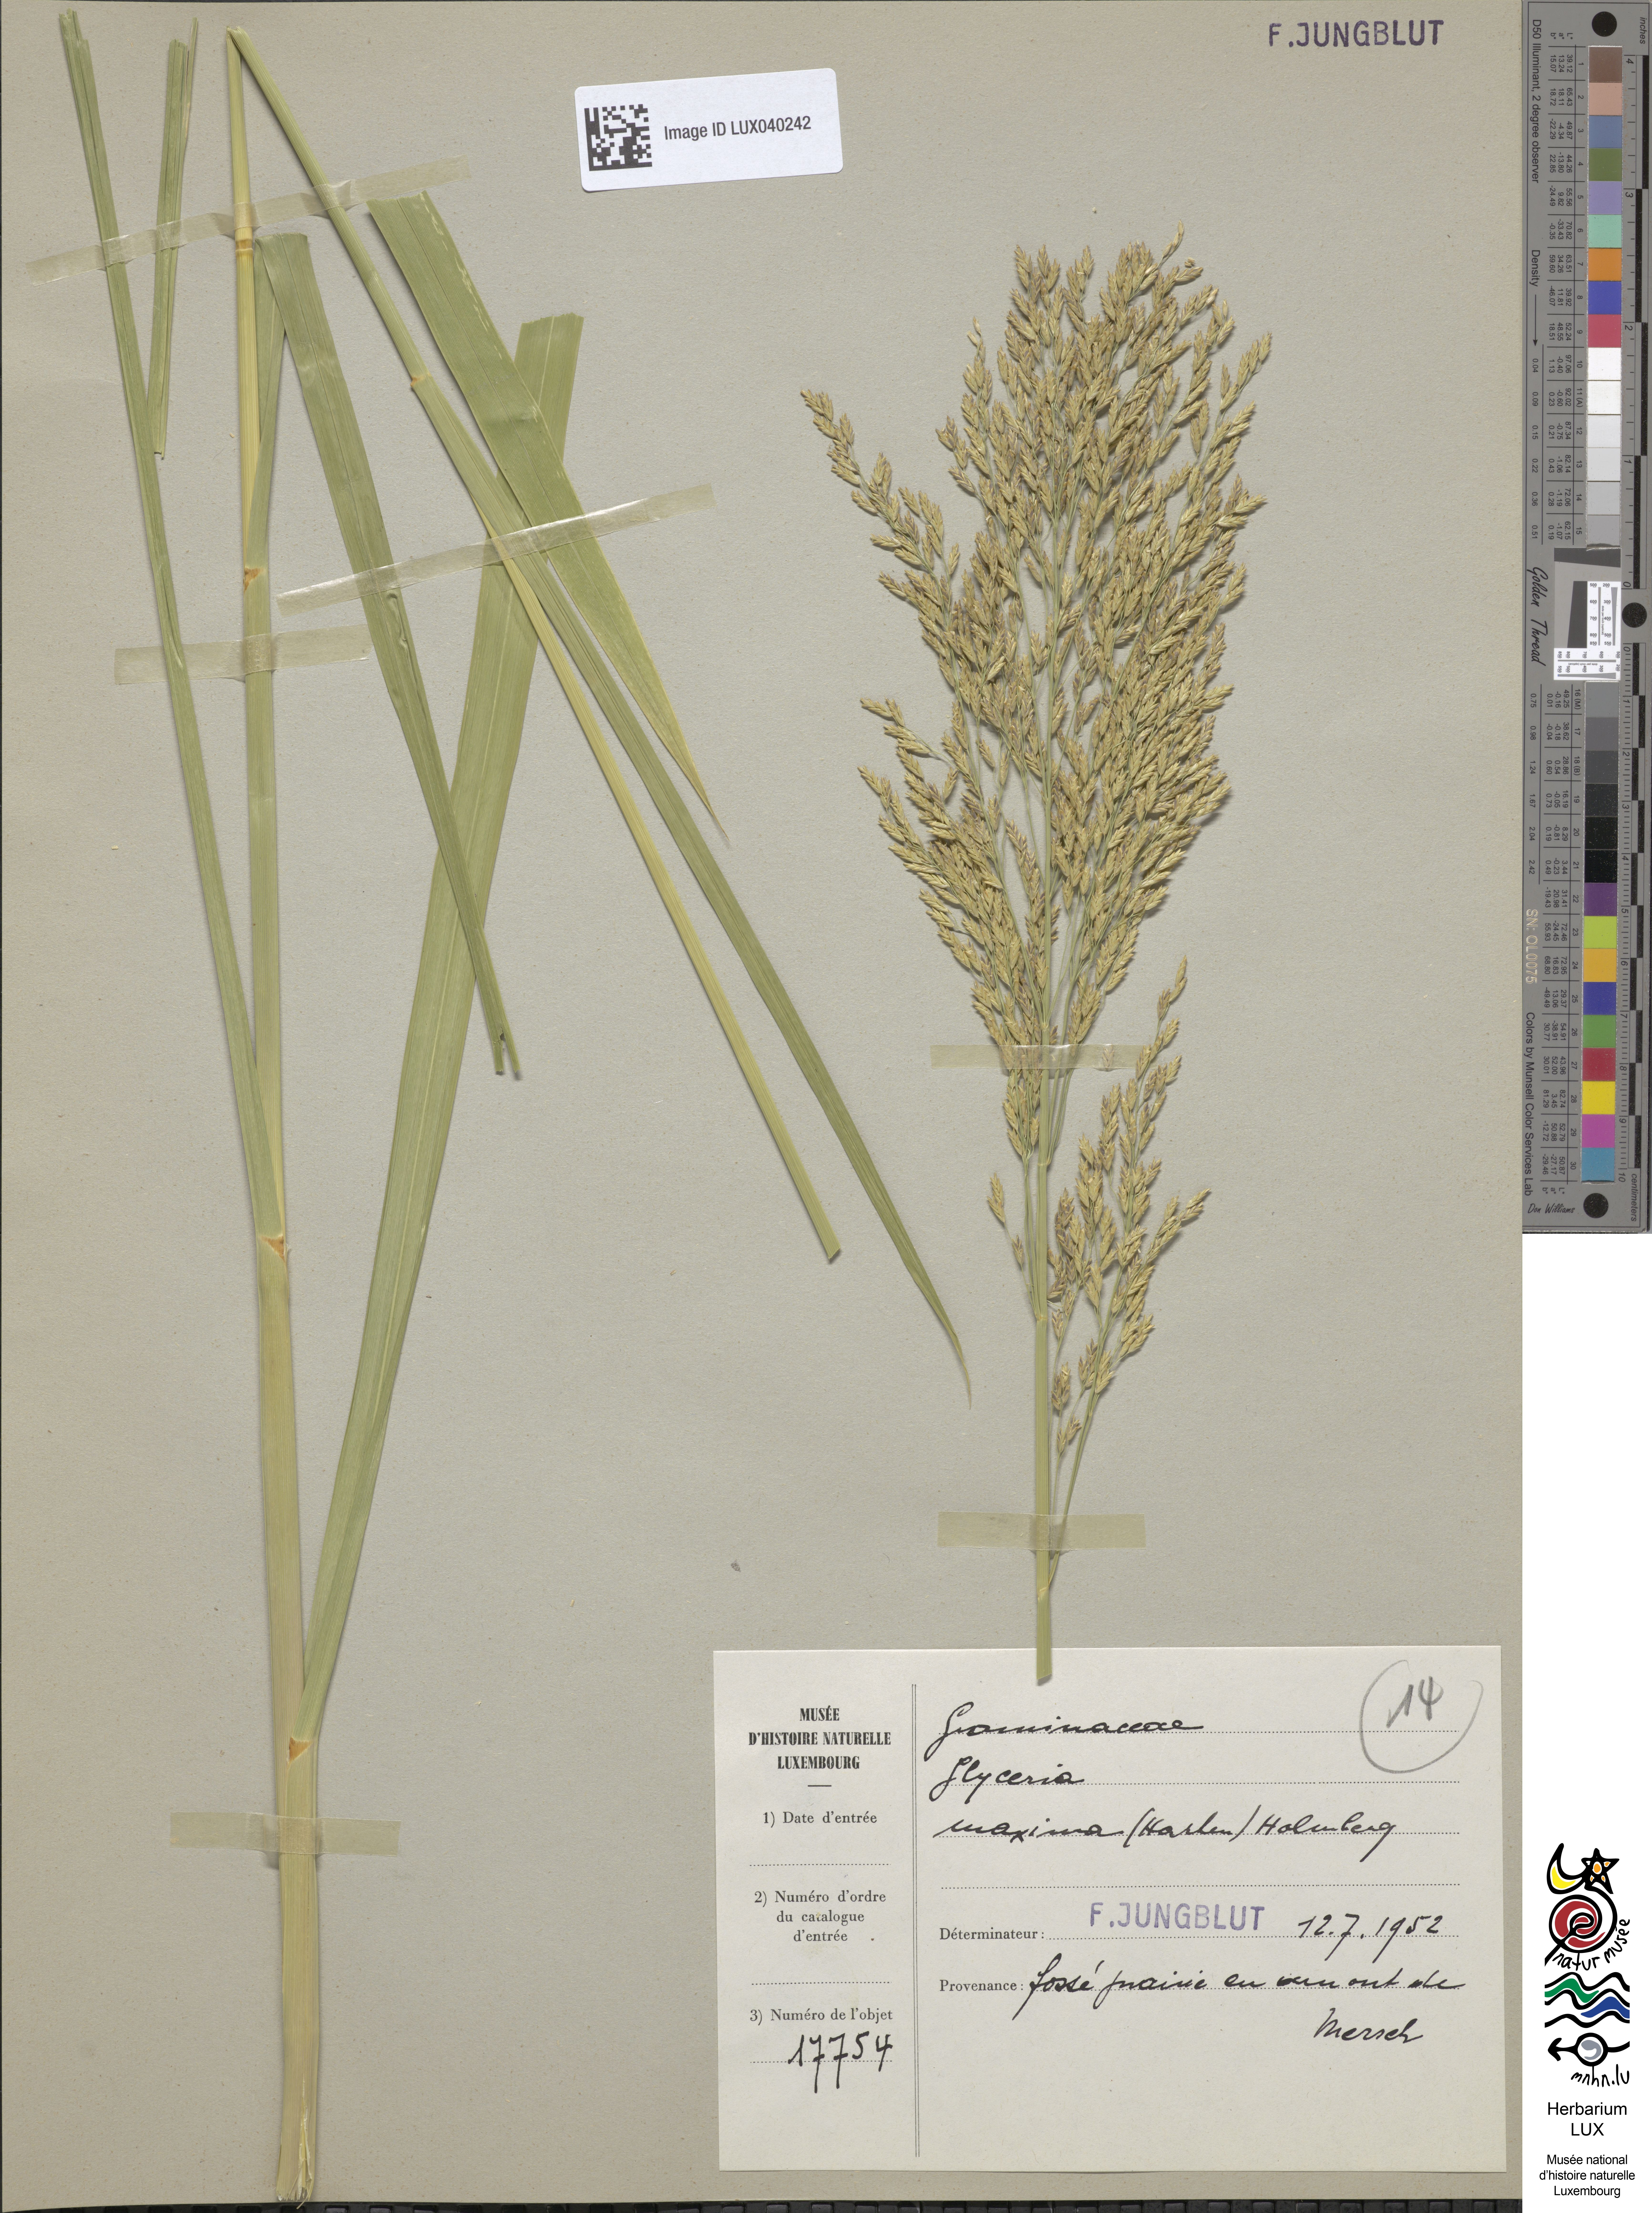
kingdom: Plantae
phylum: Tracheophyta
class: Liliopsida
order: Poales
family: Poaceae
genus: Glyceria
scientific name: Glyceria maxima
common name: Reed mannagrass
